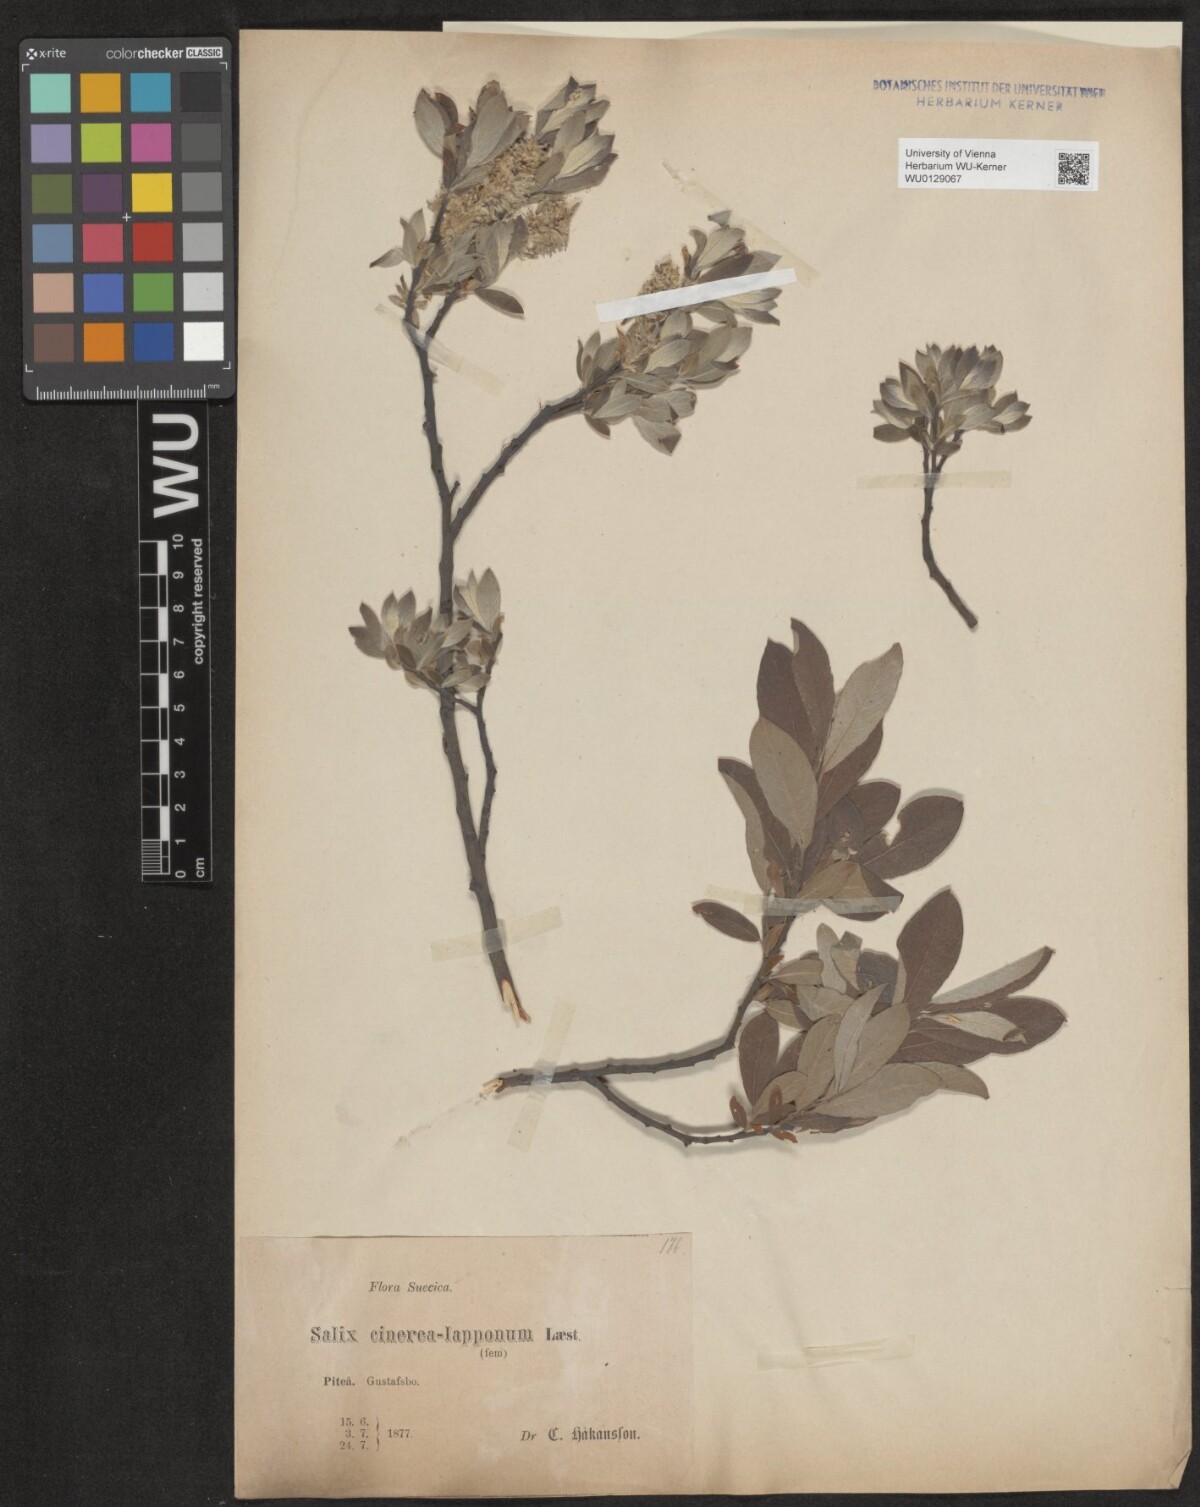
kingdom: Plantae
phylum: Tracheophyta
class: Magnoliopsida
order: Malpighiales
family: Salicaceae
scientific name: Salicaceae
